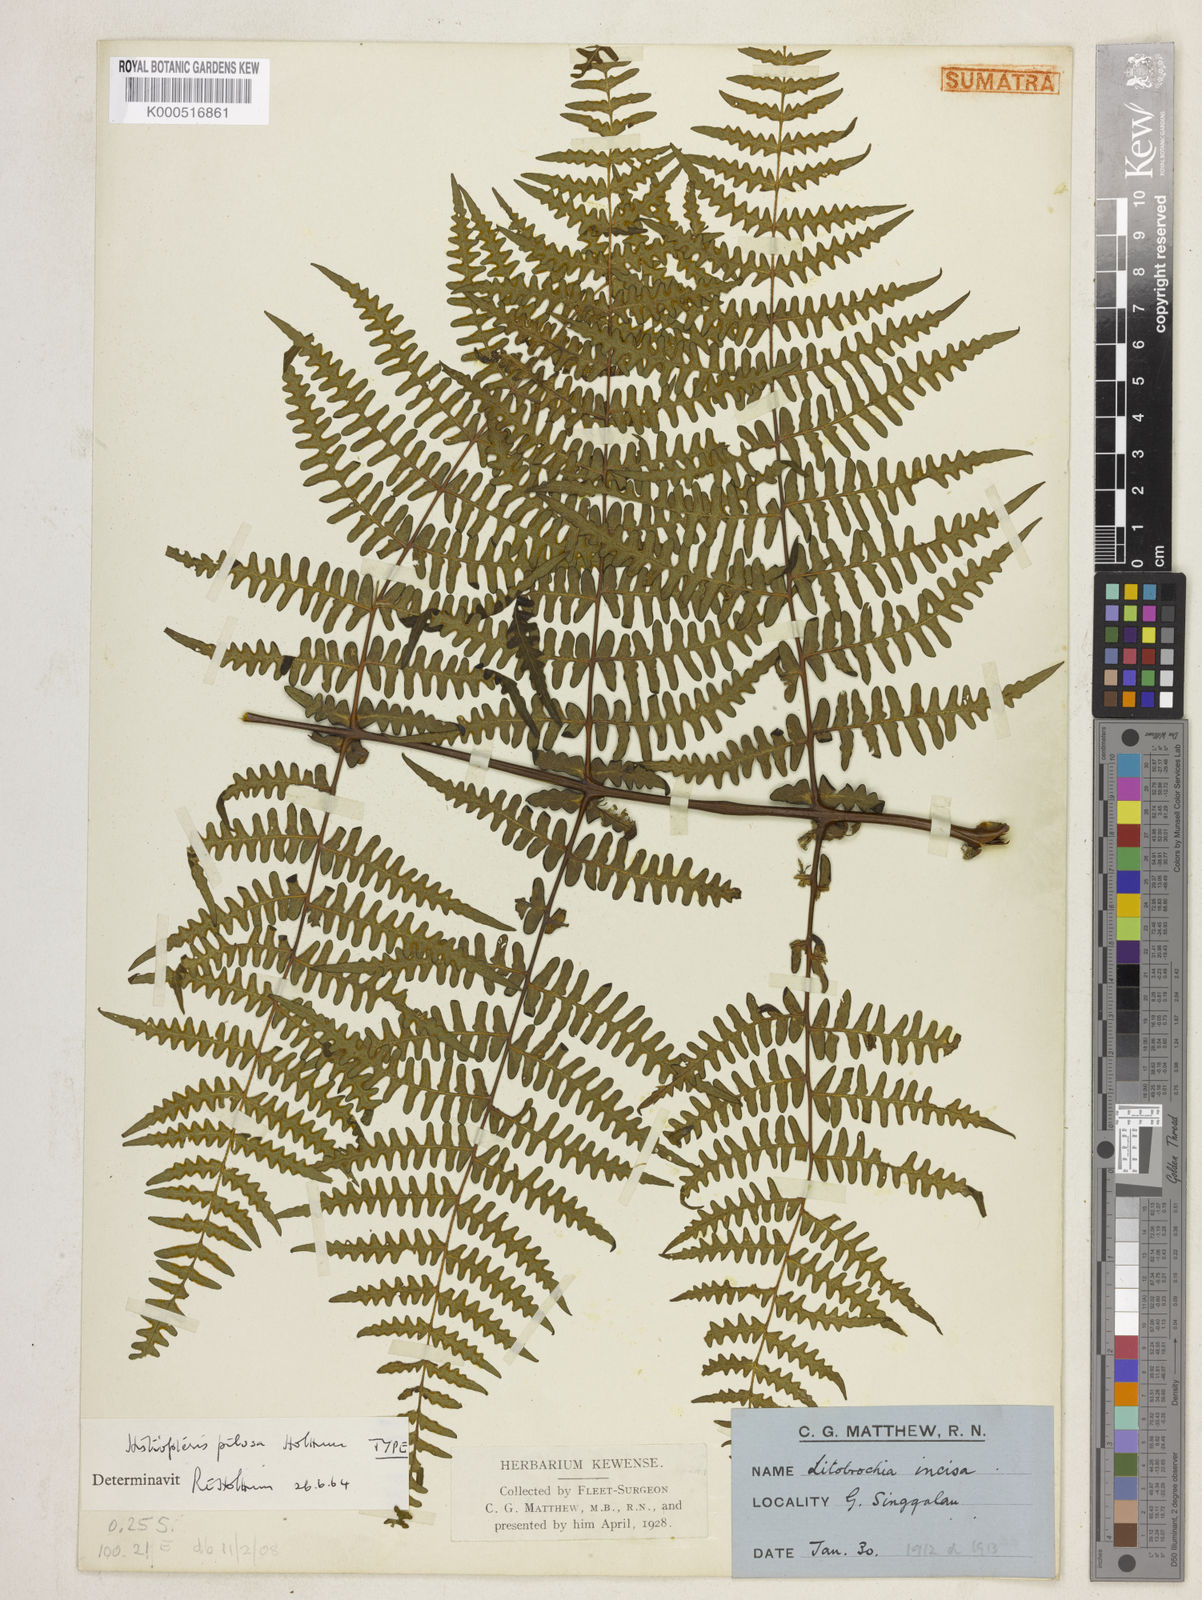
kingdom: Plantae
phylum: Tracheophyta
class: Polypodiopsida
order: Polypodiales
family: Dennstaedtiaceae
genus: Histiopteris
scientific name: Histiopteris pilosa
